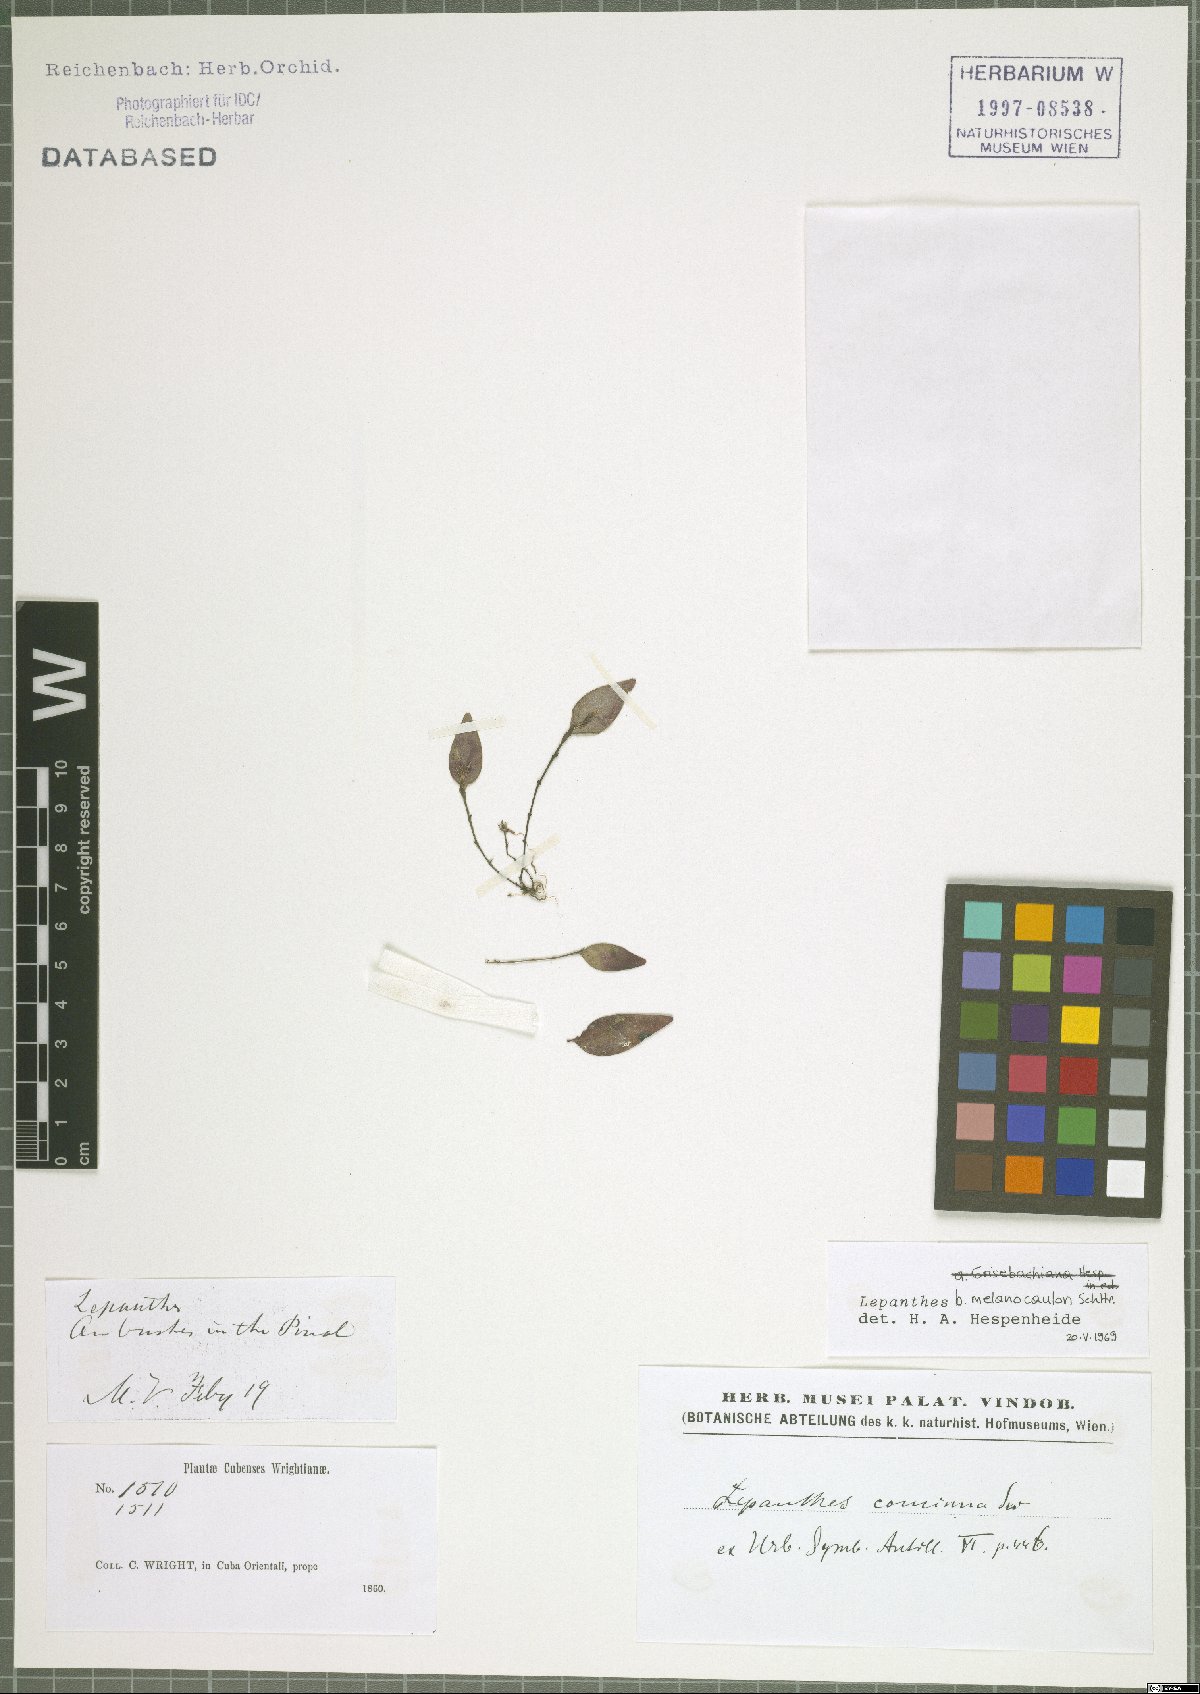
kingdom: Plantae
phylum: Tracheophyta
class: Liliopsida
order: Asparagales
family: Orchidaceae
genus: Lepanthes
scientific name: Lepanthes melanocaulon
